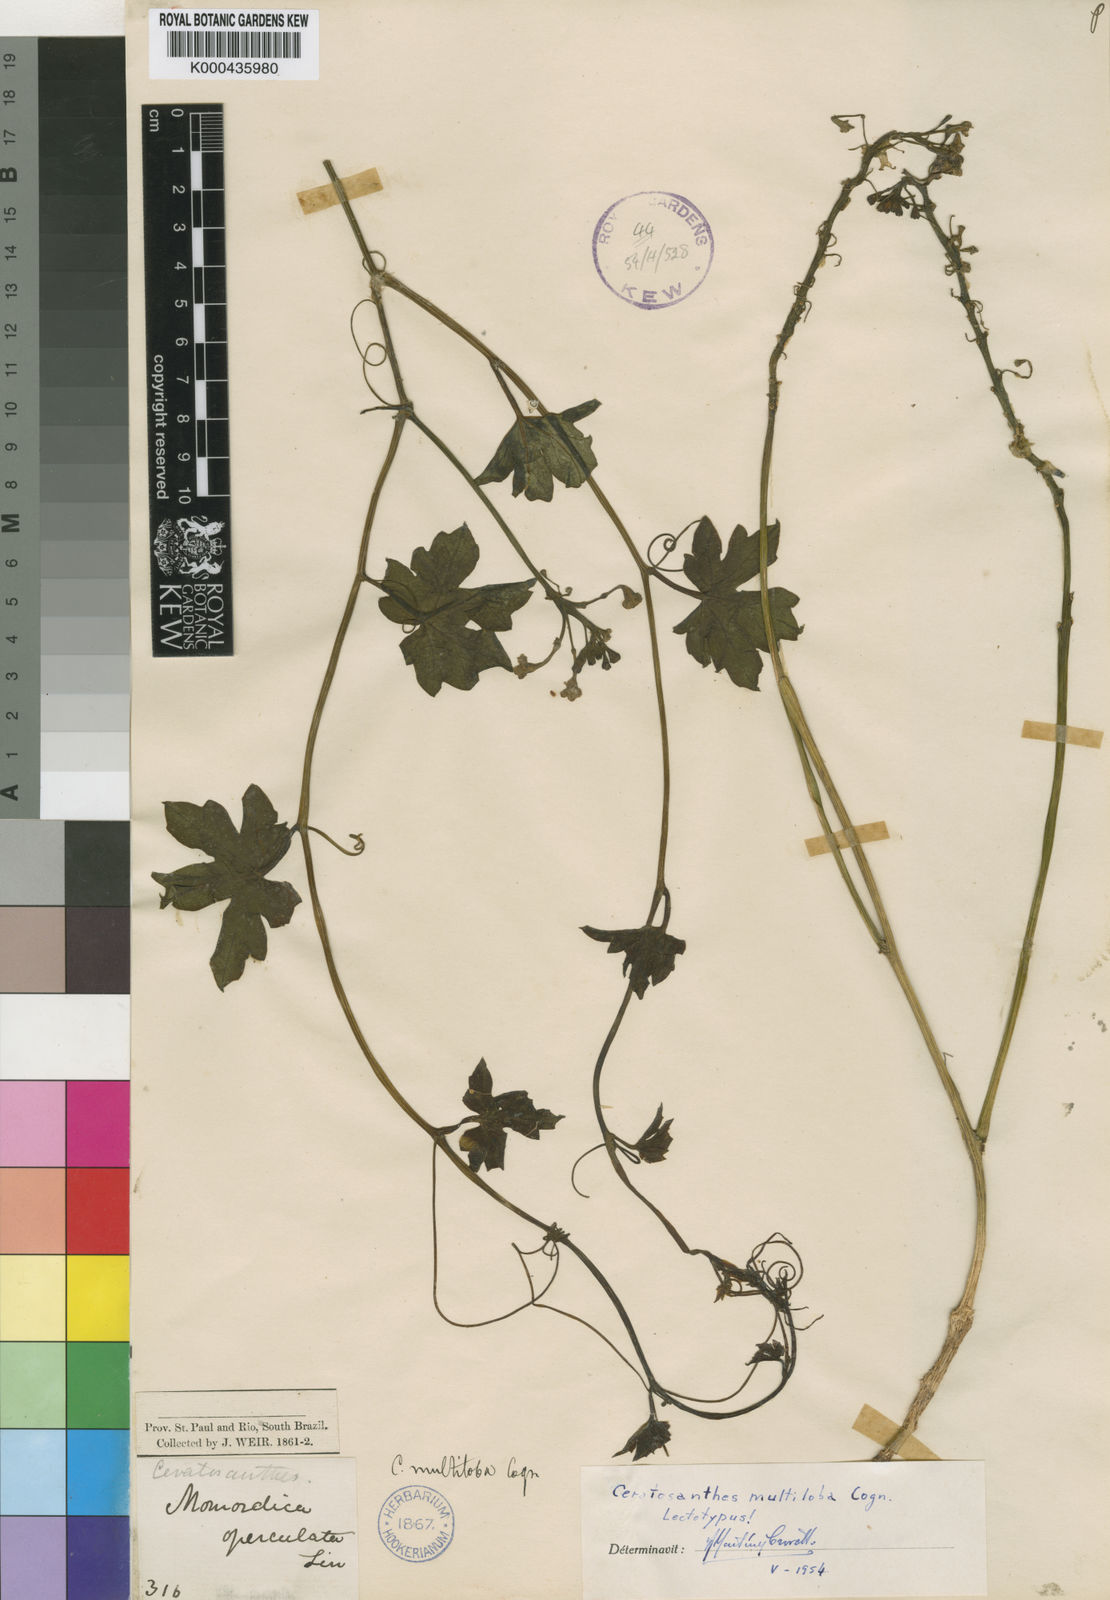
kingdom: Plantae
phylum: Tracheophyta
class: Magnoliopsida
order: Cucurbitales
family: Cucurbitaceae
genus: Ceratosanthes
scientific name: Ceratosanthes multiloba
